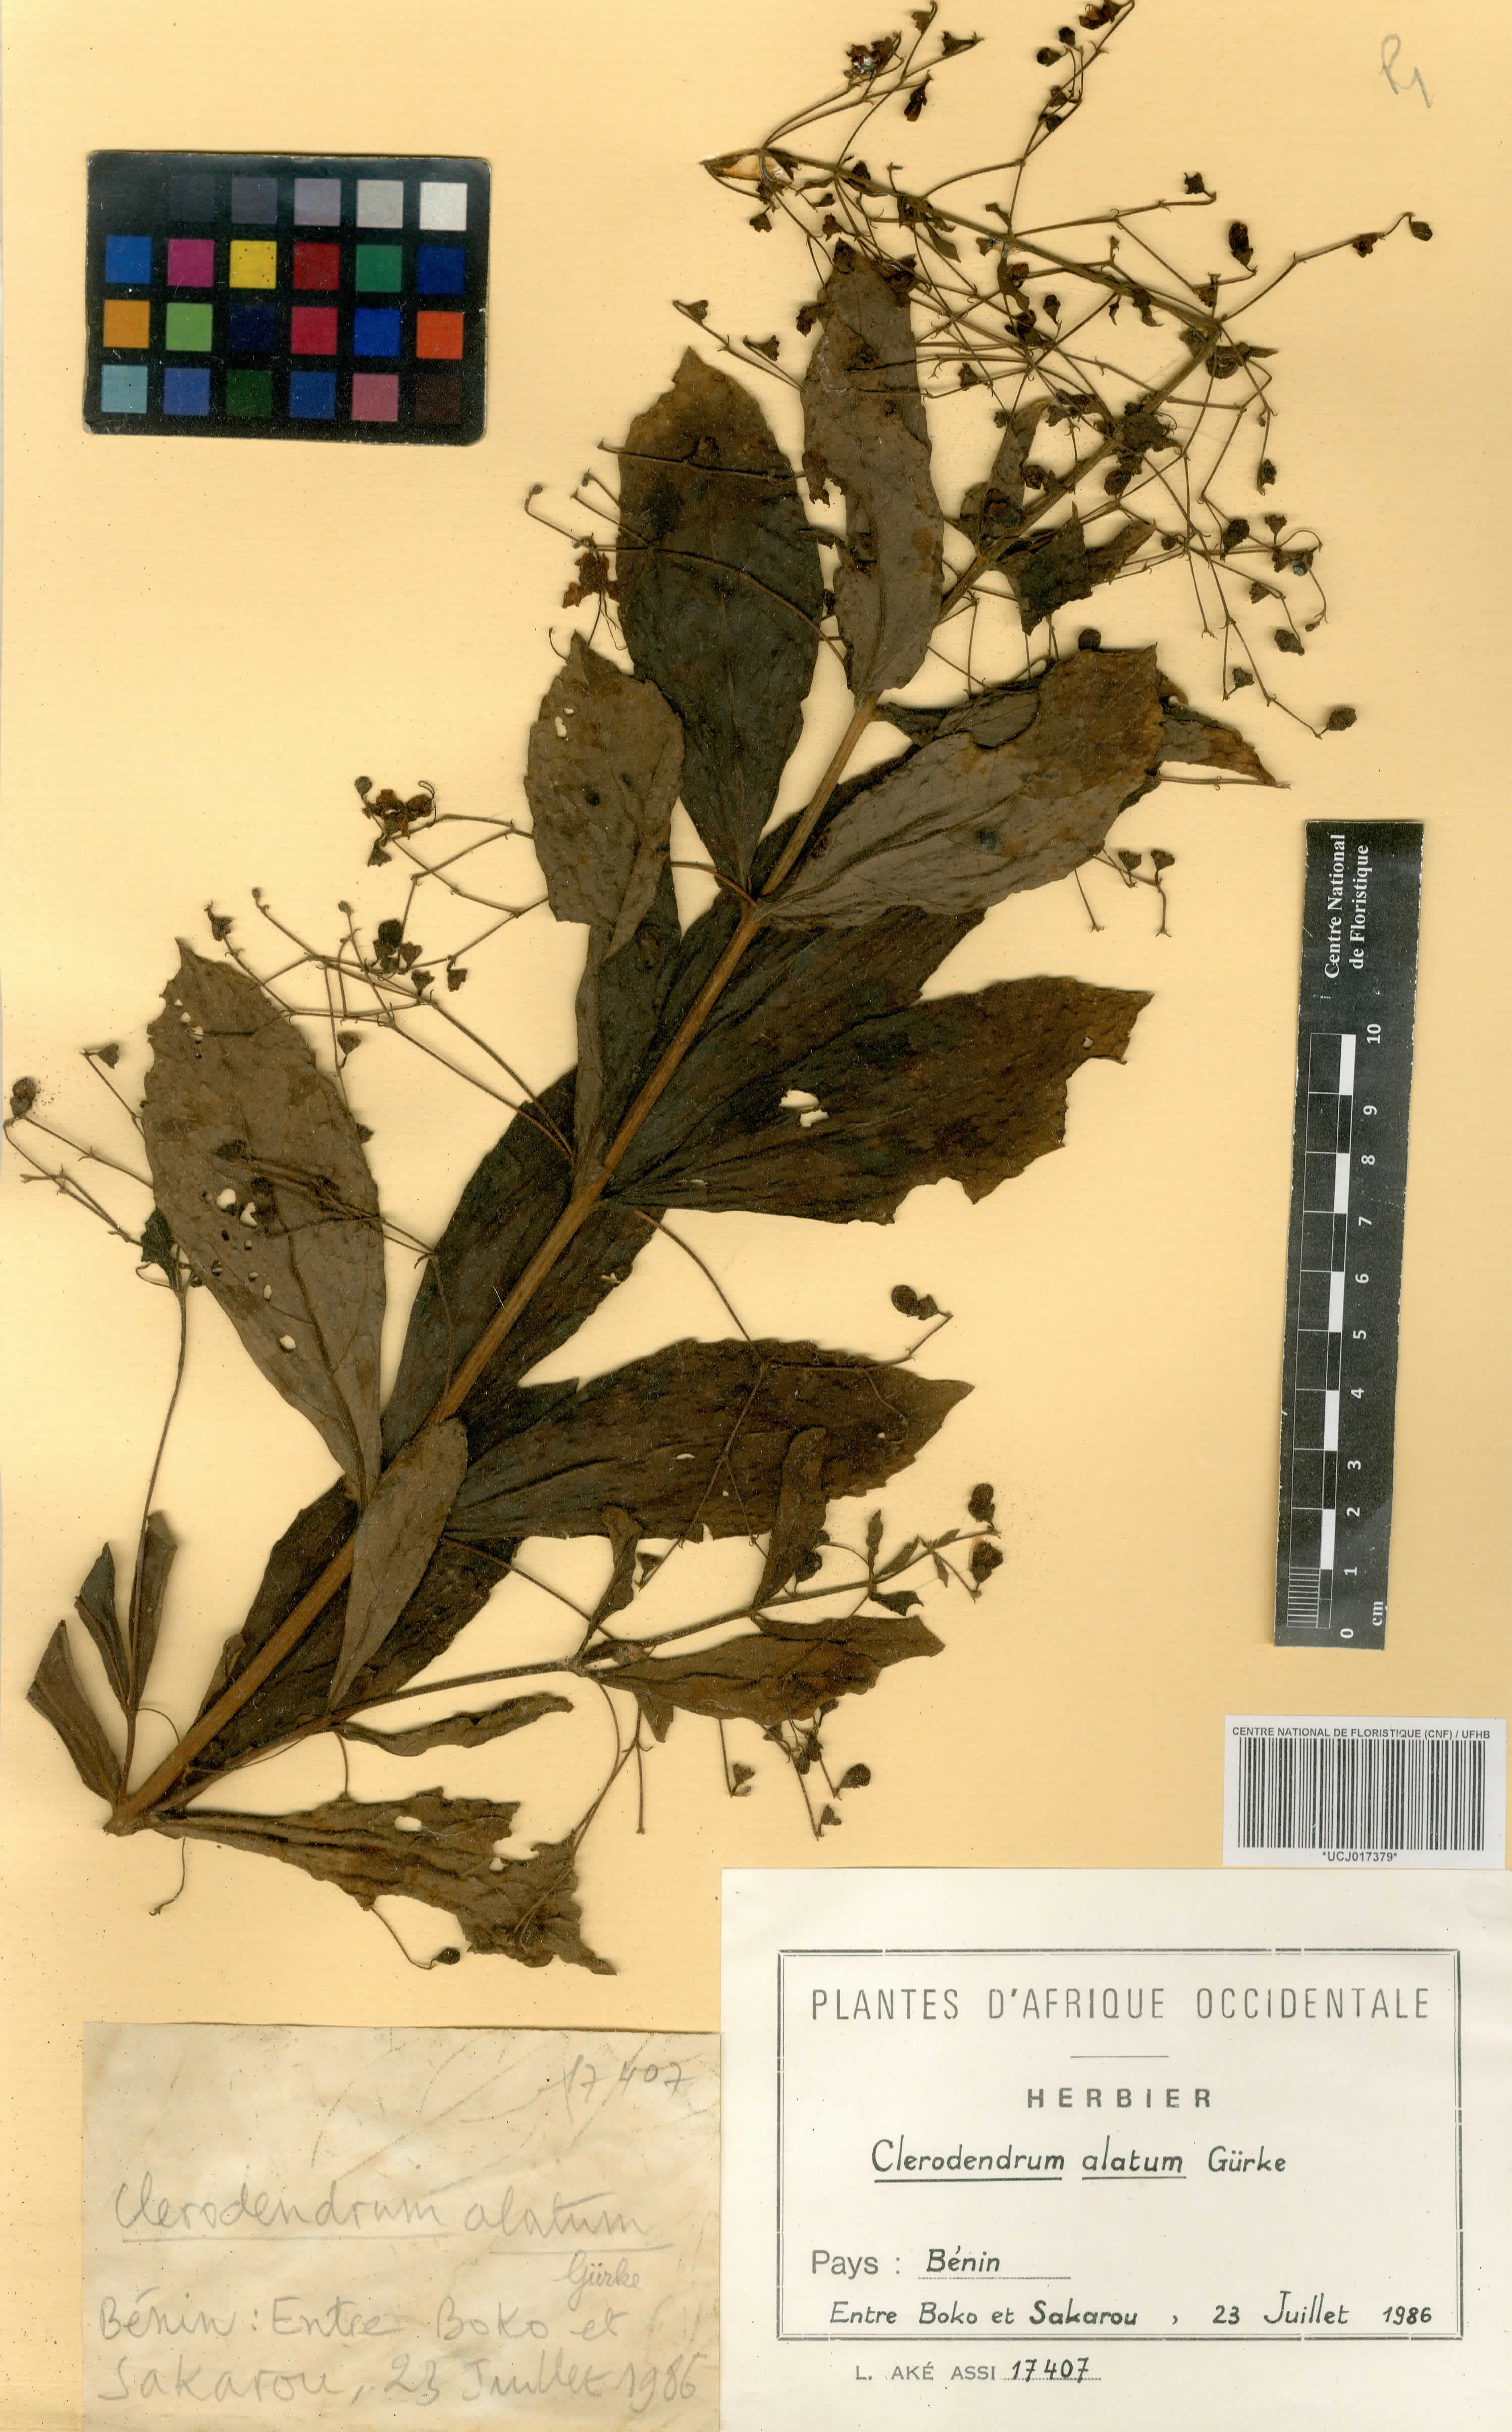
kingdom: Plantae
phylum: Tracheophyta
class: Magnoliopsida
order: Lamiales
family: Lamiaceae
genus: Rotheca
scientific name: Rotheca alata
